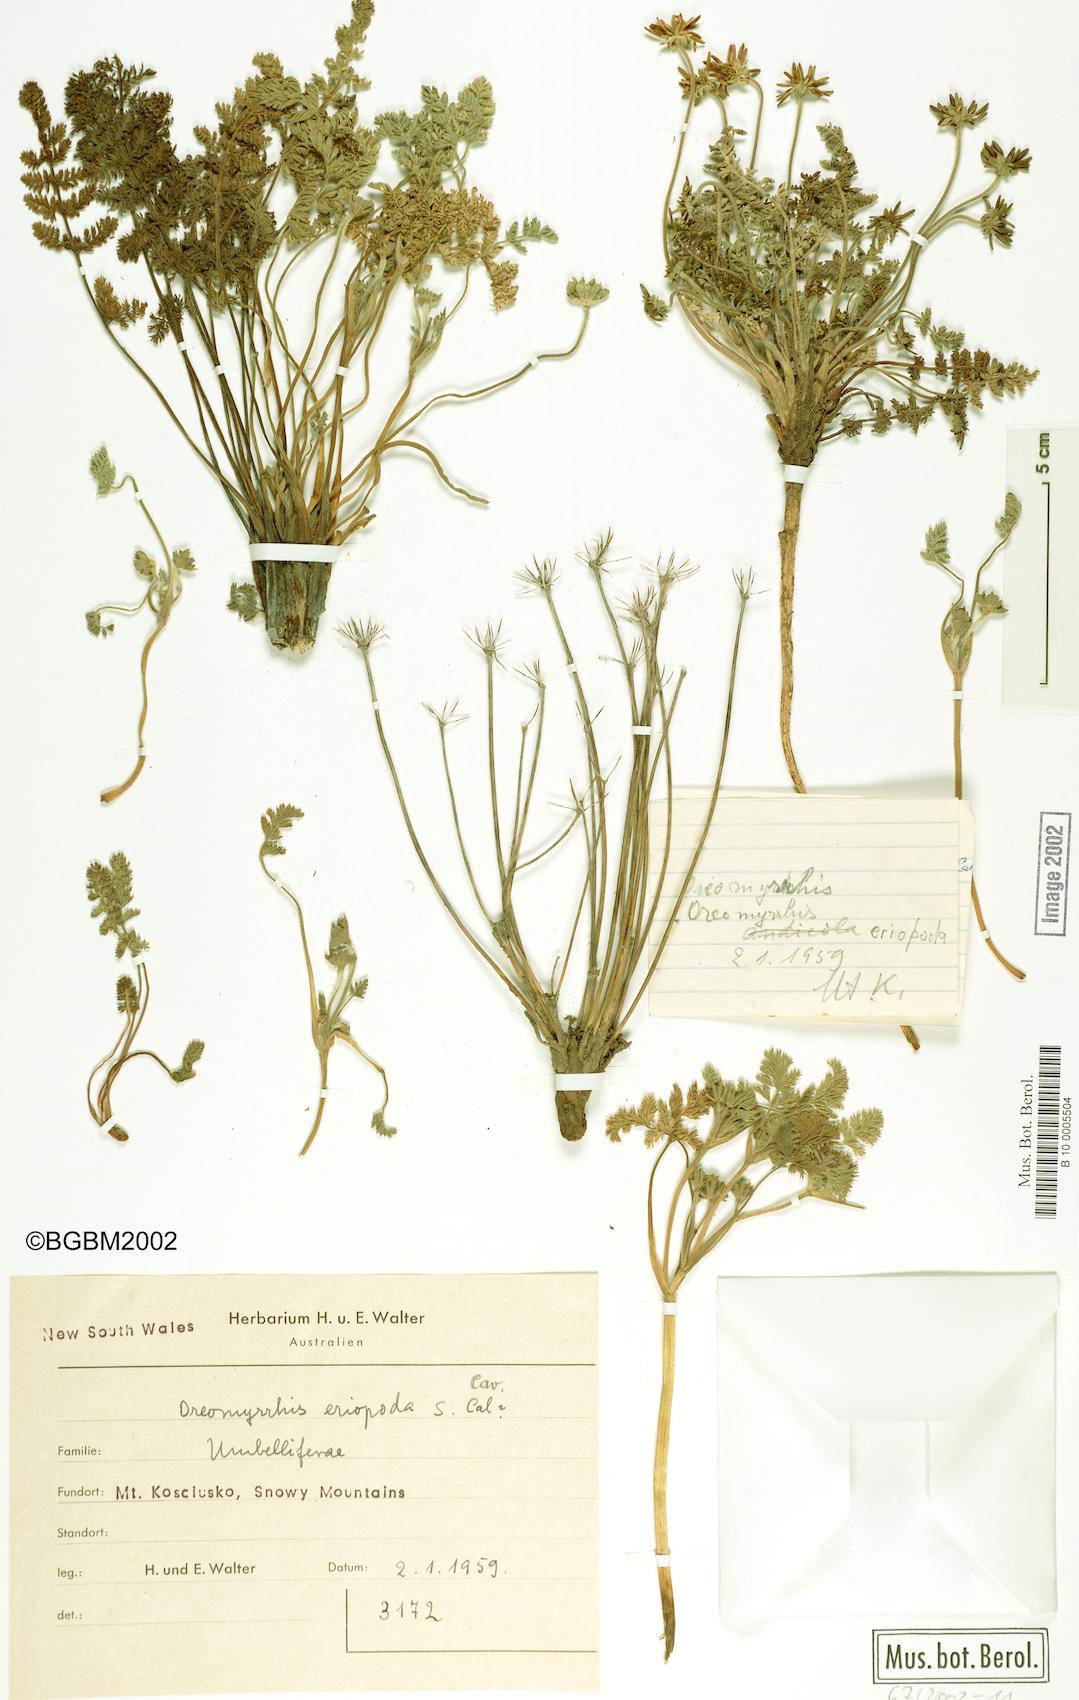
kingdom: Plantae
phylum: Tracheophyta
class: Magnoliopsida
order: Apiales
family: Apiaceae
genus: Chaerophyllum
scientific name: Chaerophyllum eriopodum
